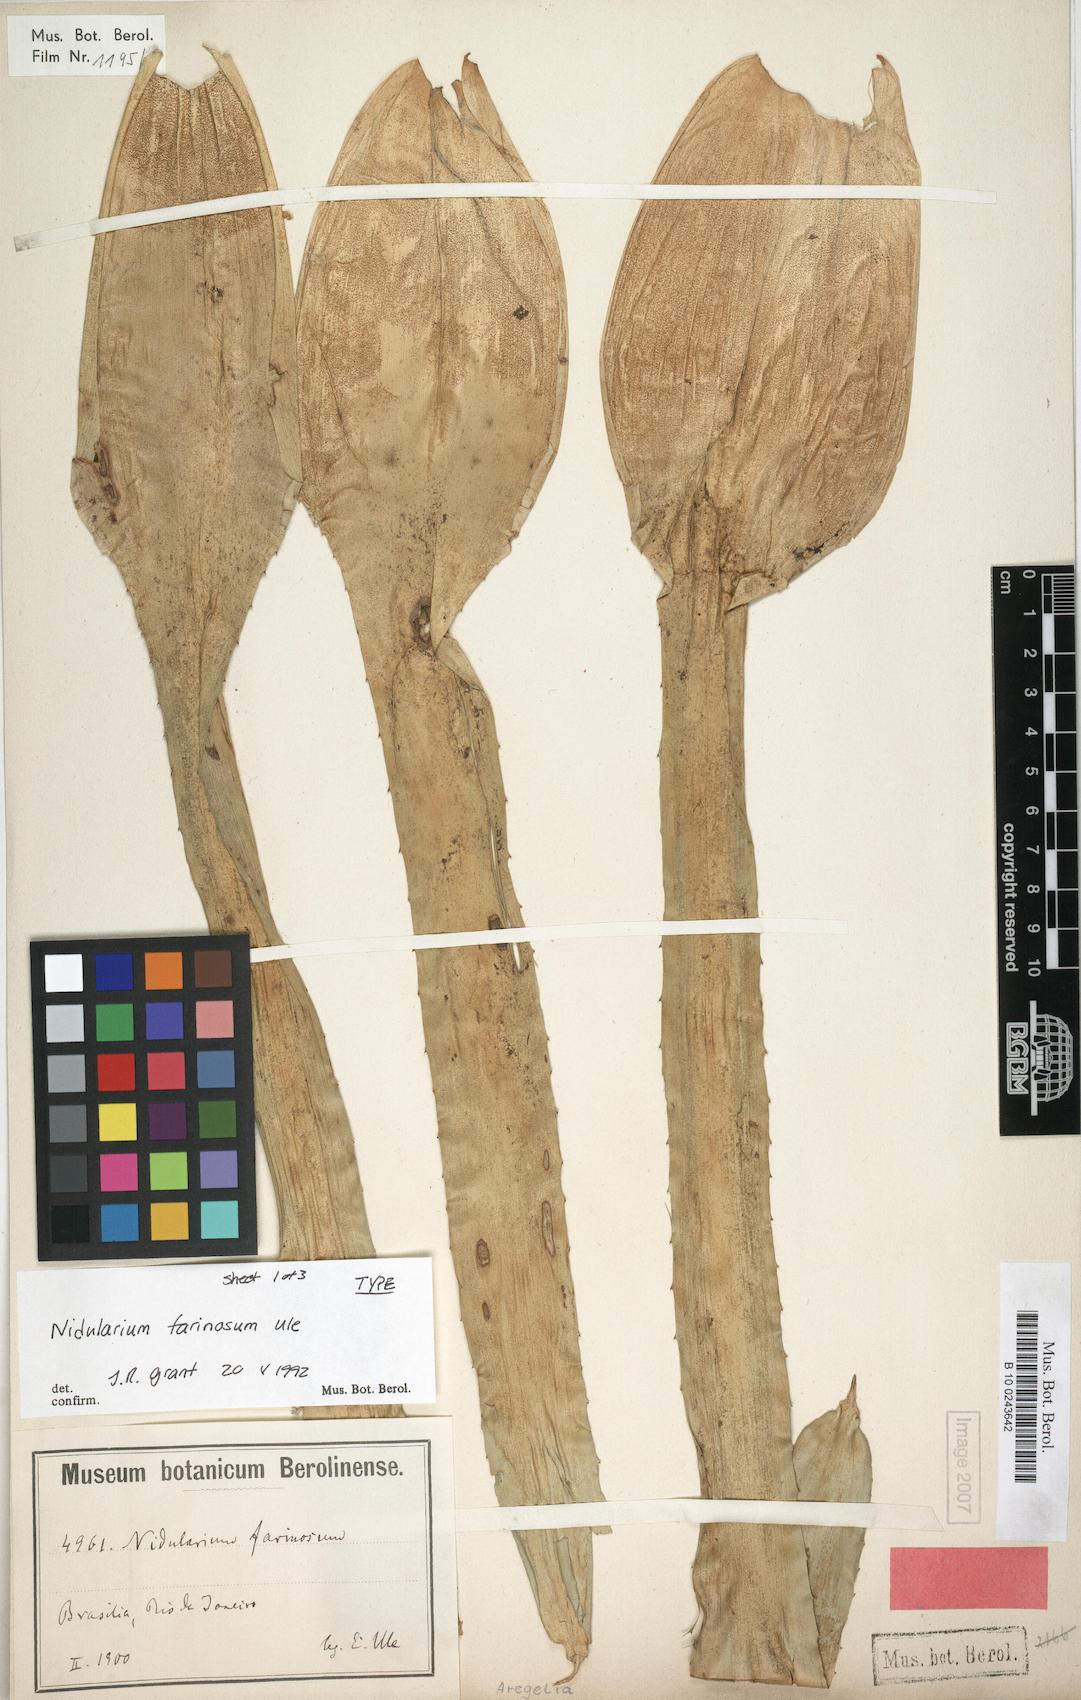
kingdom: Plantae
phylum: Tracheophyta
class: Liliopsida
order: Poales
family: Bromeliaceae
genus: Neoregelia
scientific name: Neoregelia farinosa
